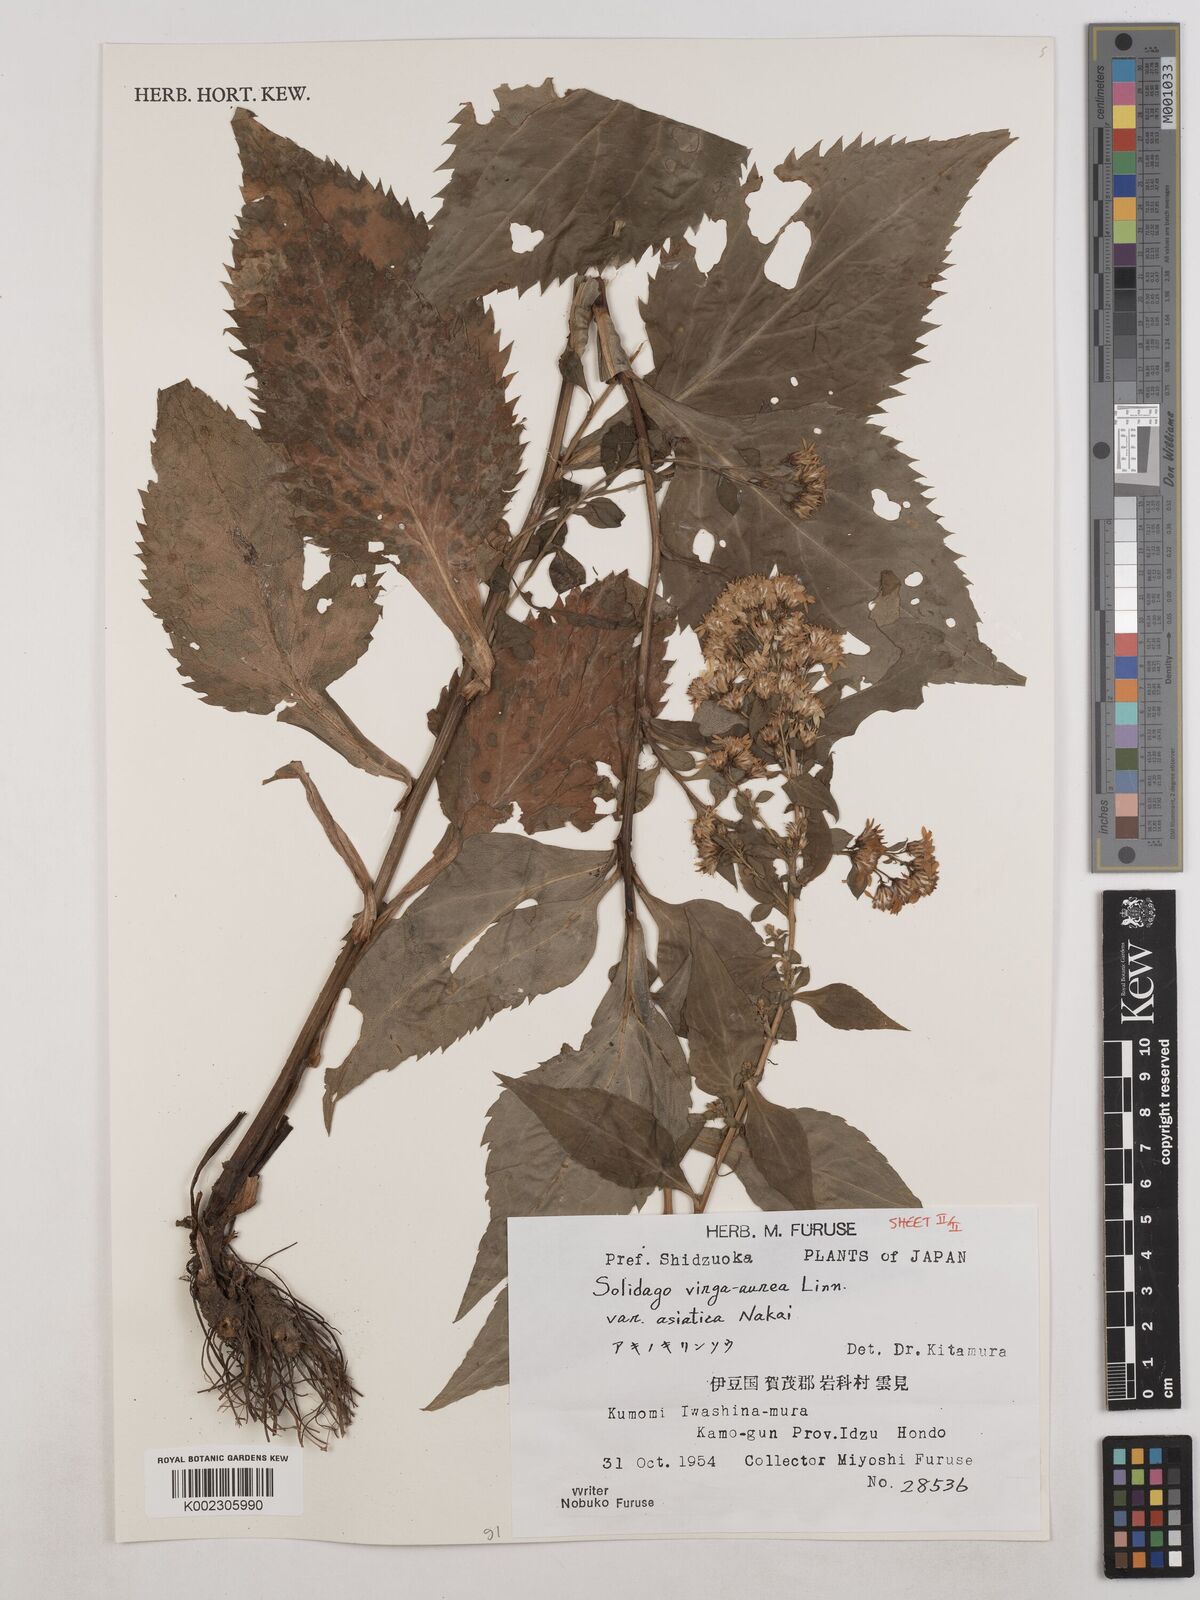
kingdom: Plantae
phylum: Tracheophyta
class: Magnoliopsida
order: Asterales
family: Asteraceae
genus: Solidago
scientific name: Solidago virgaurea
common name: Goldenrod
